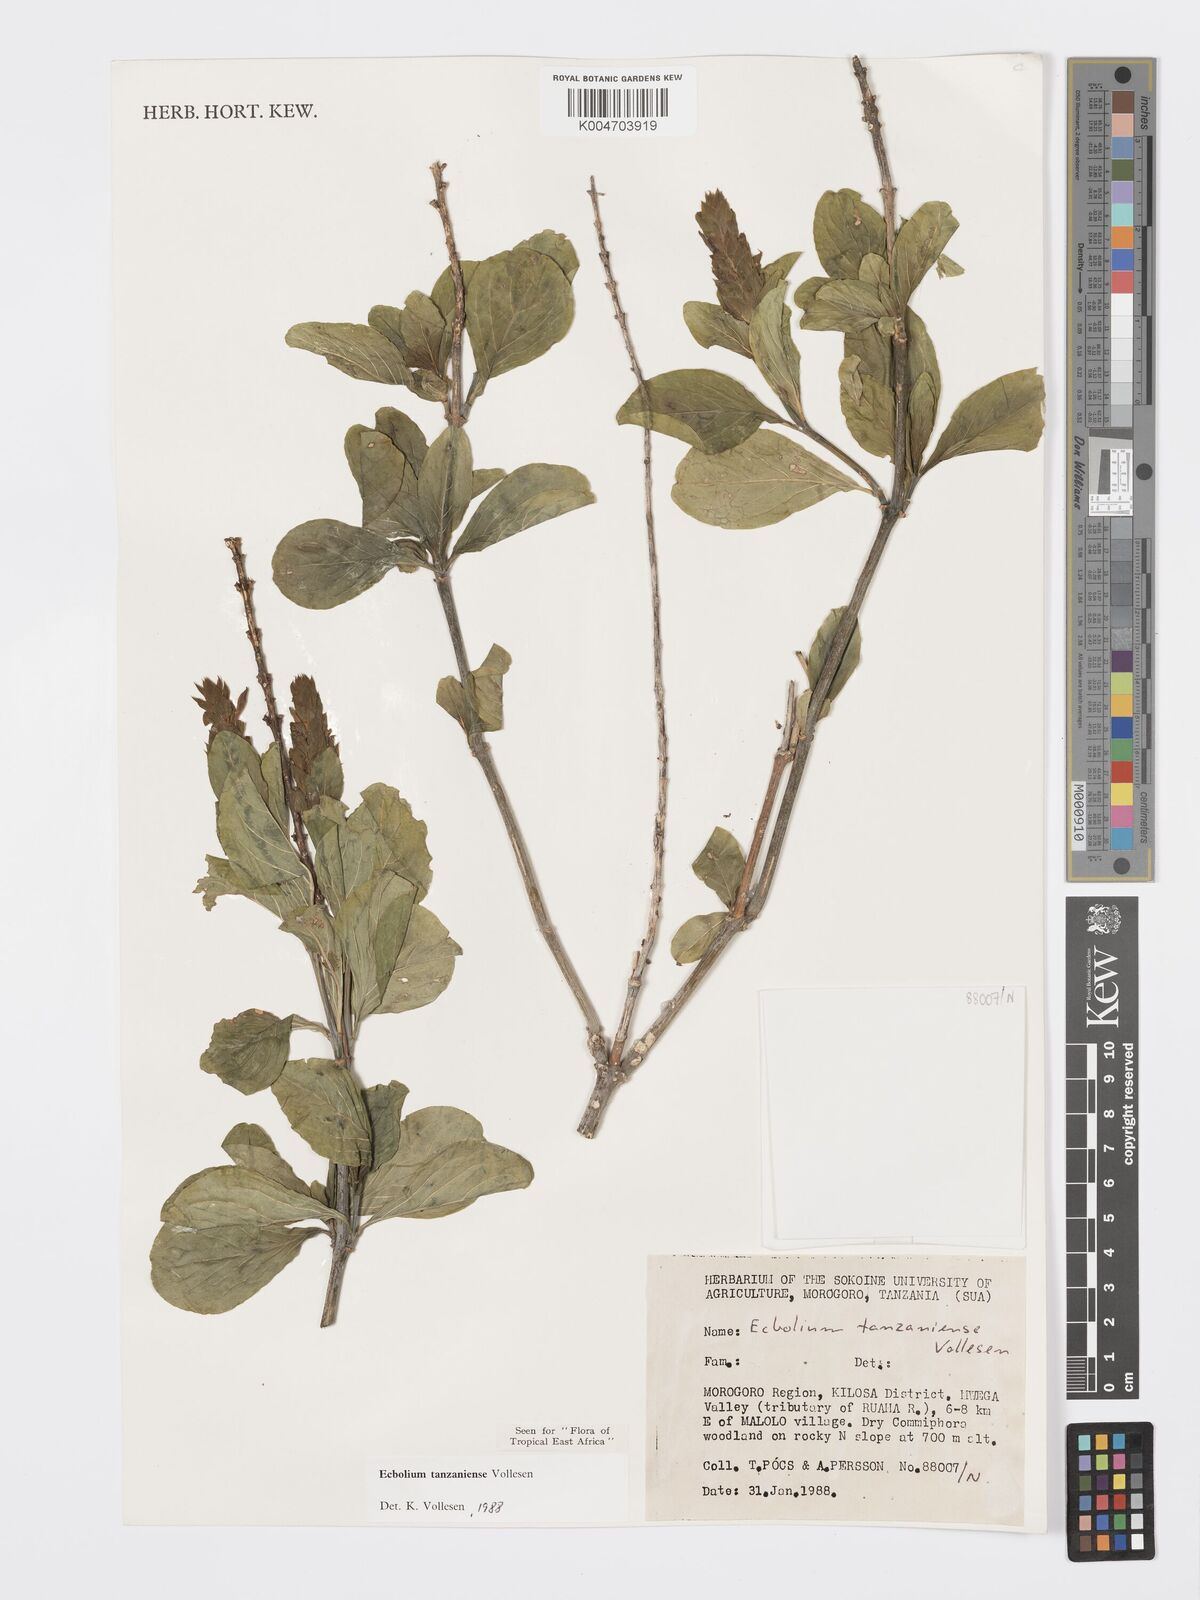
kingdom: Plantae
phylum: Tracheophyta
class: Magnoliopsida
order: Lamiales
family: Acanthaceae
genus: Ecbolium
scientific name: Ecbolium tanzaniense
